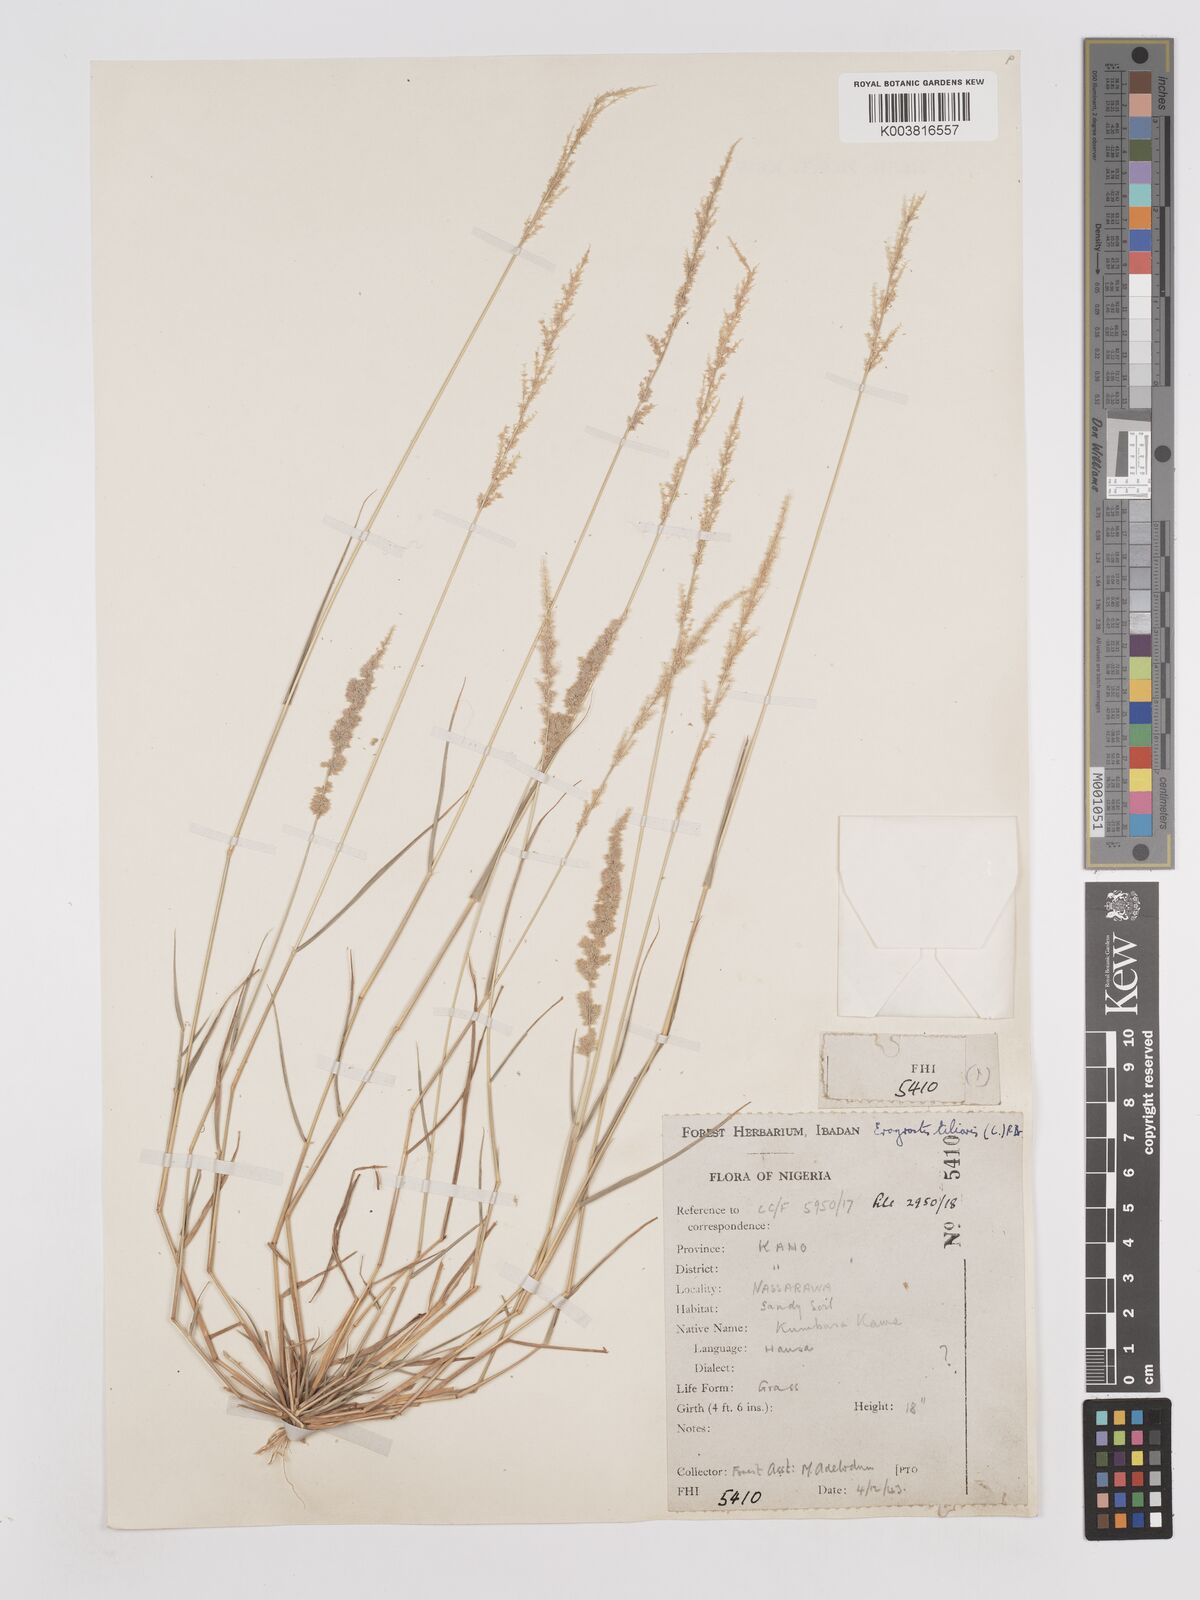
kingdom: Plantae
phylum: Tracheophyta
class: Liliopsida
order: Poales
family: Poaceae
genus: Eragrostis
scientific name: Eragrostis ciliaris
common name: Gophertail lovegrass
